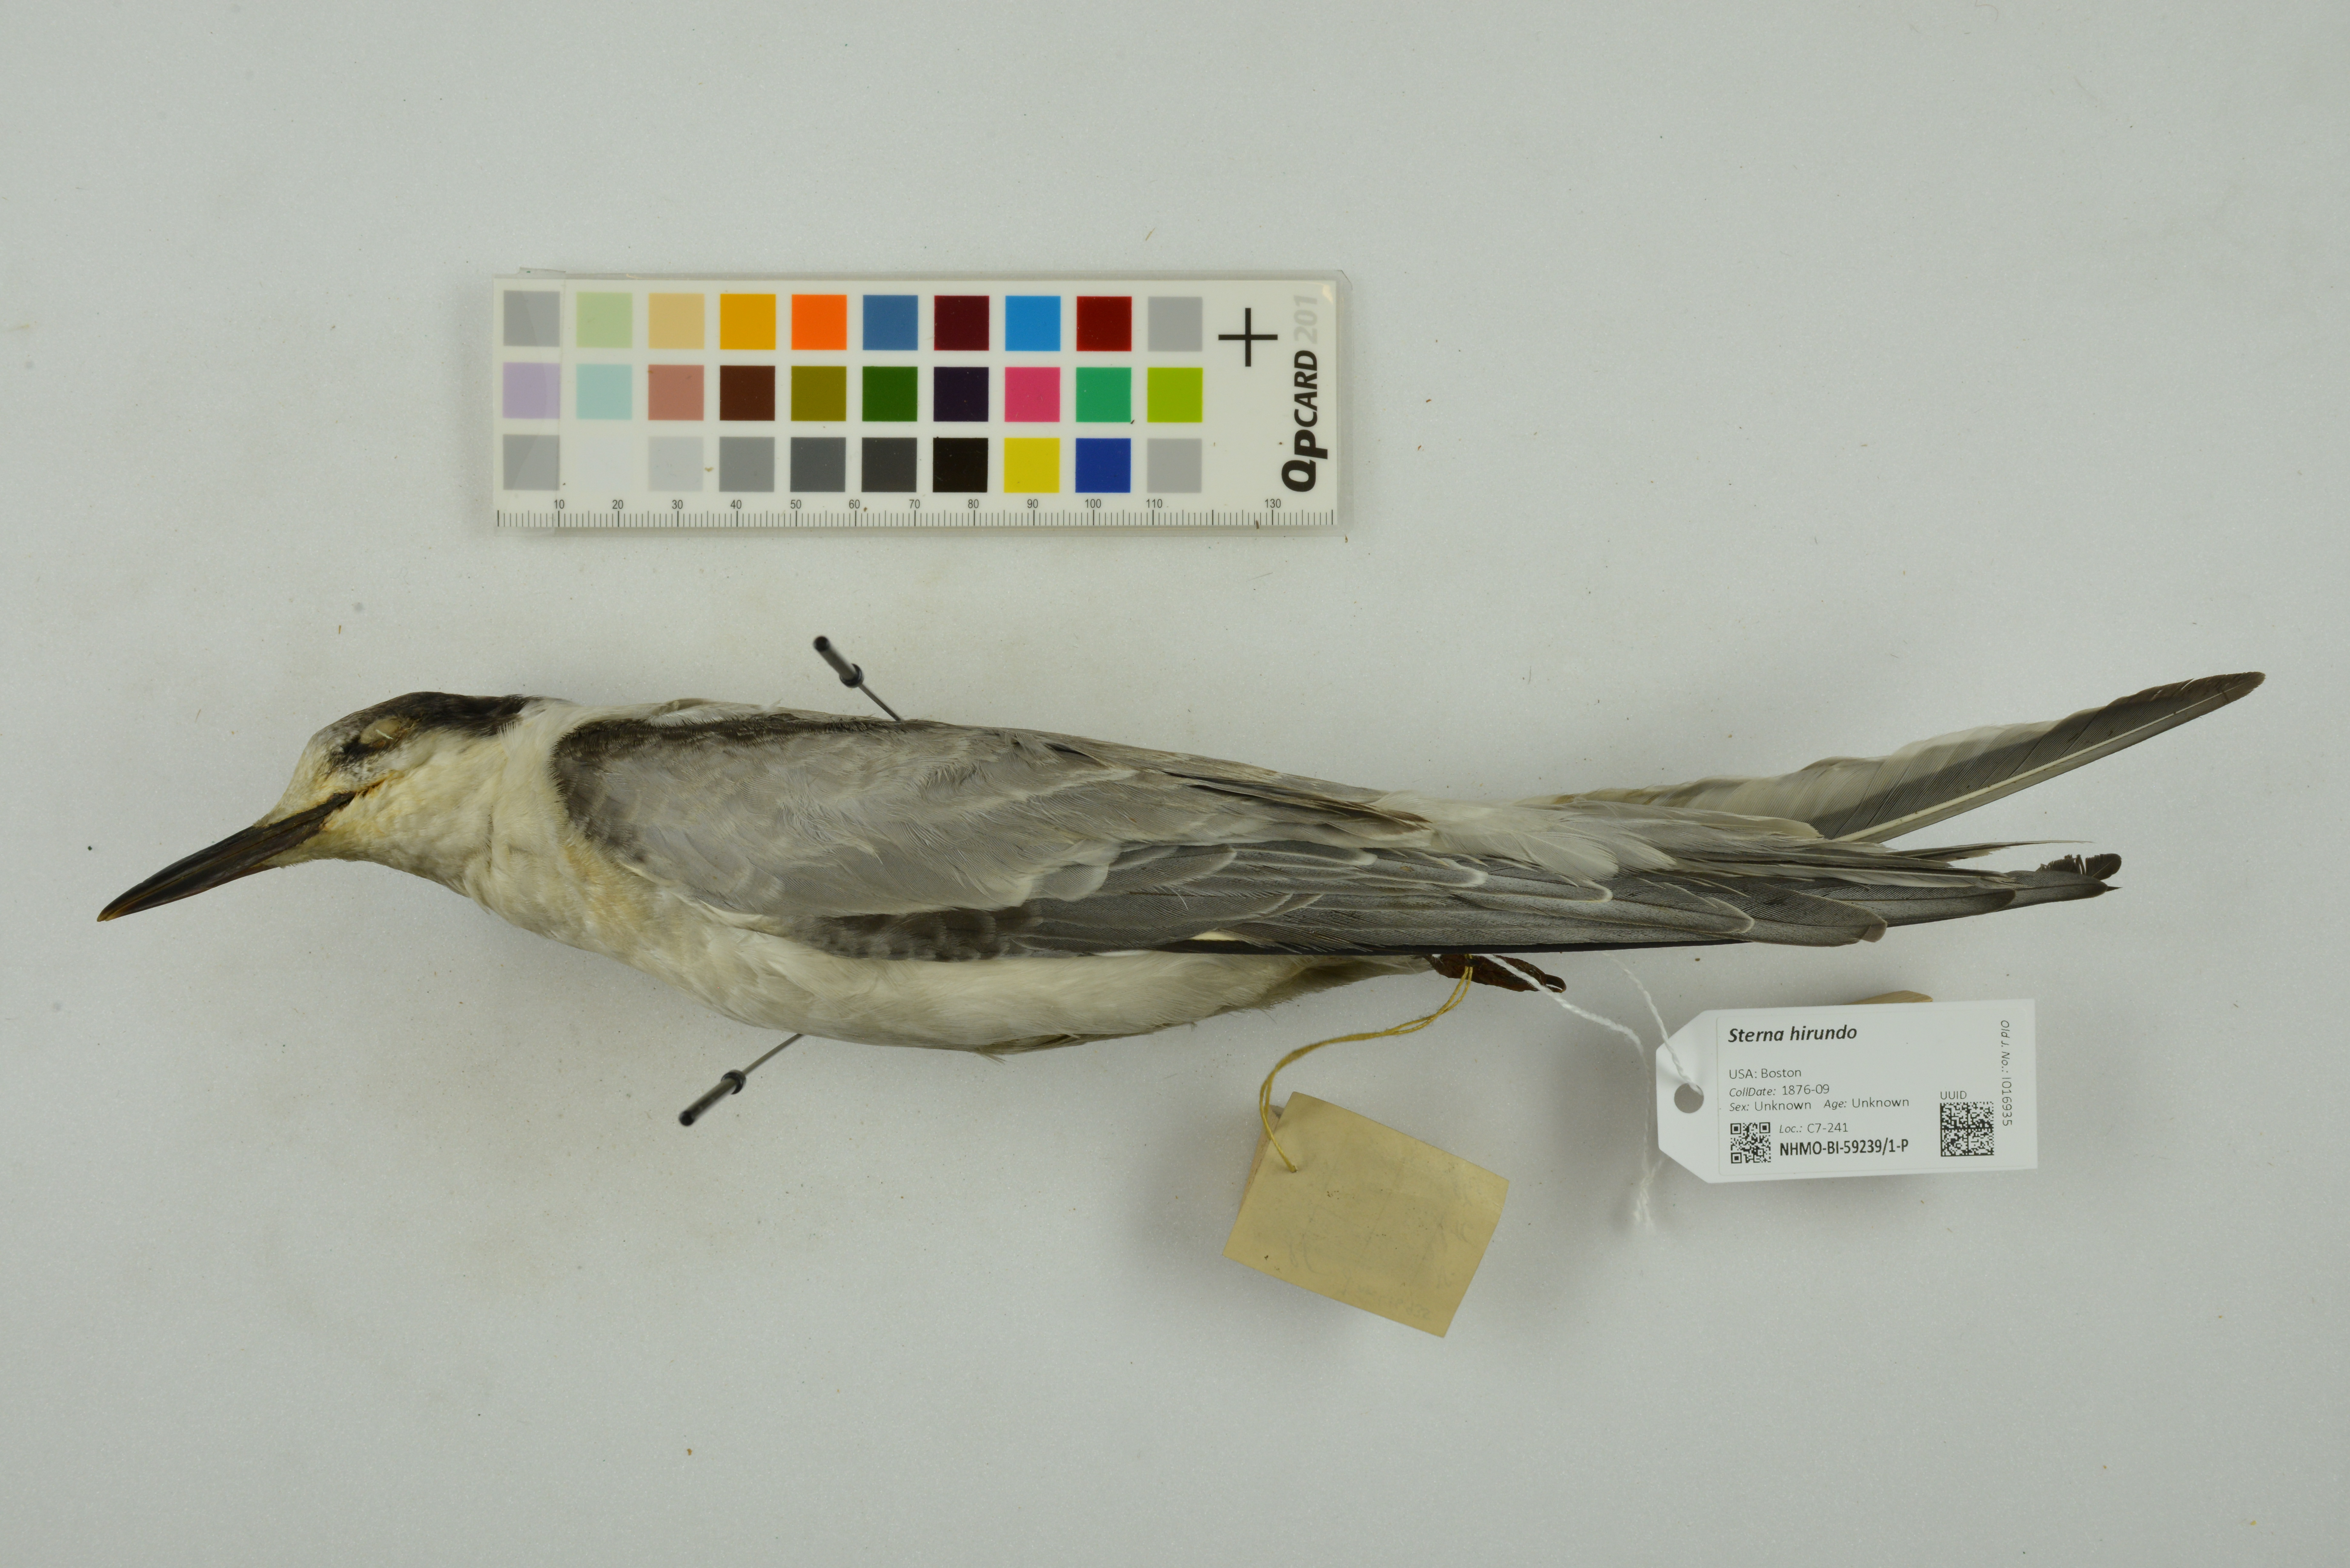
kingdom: Animalia
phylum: Chordata
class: Aves
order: Charadriiformes
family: Laridae
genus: Sterna
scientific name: Sterna hirundo
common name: Common tern
